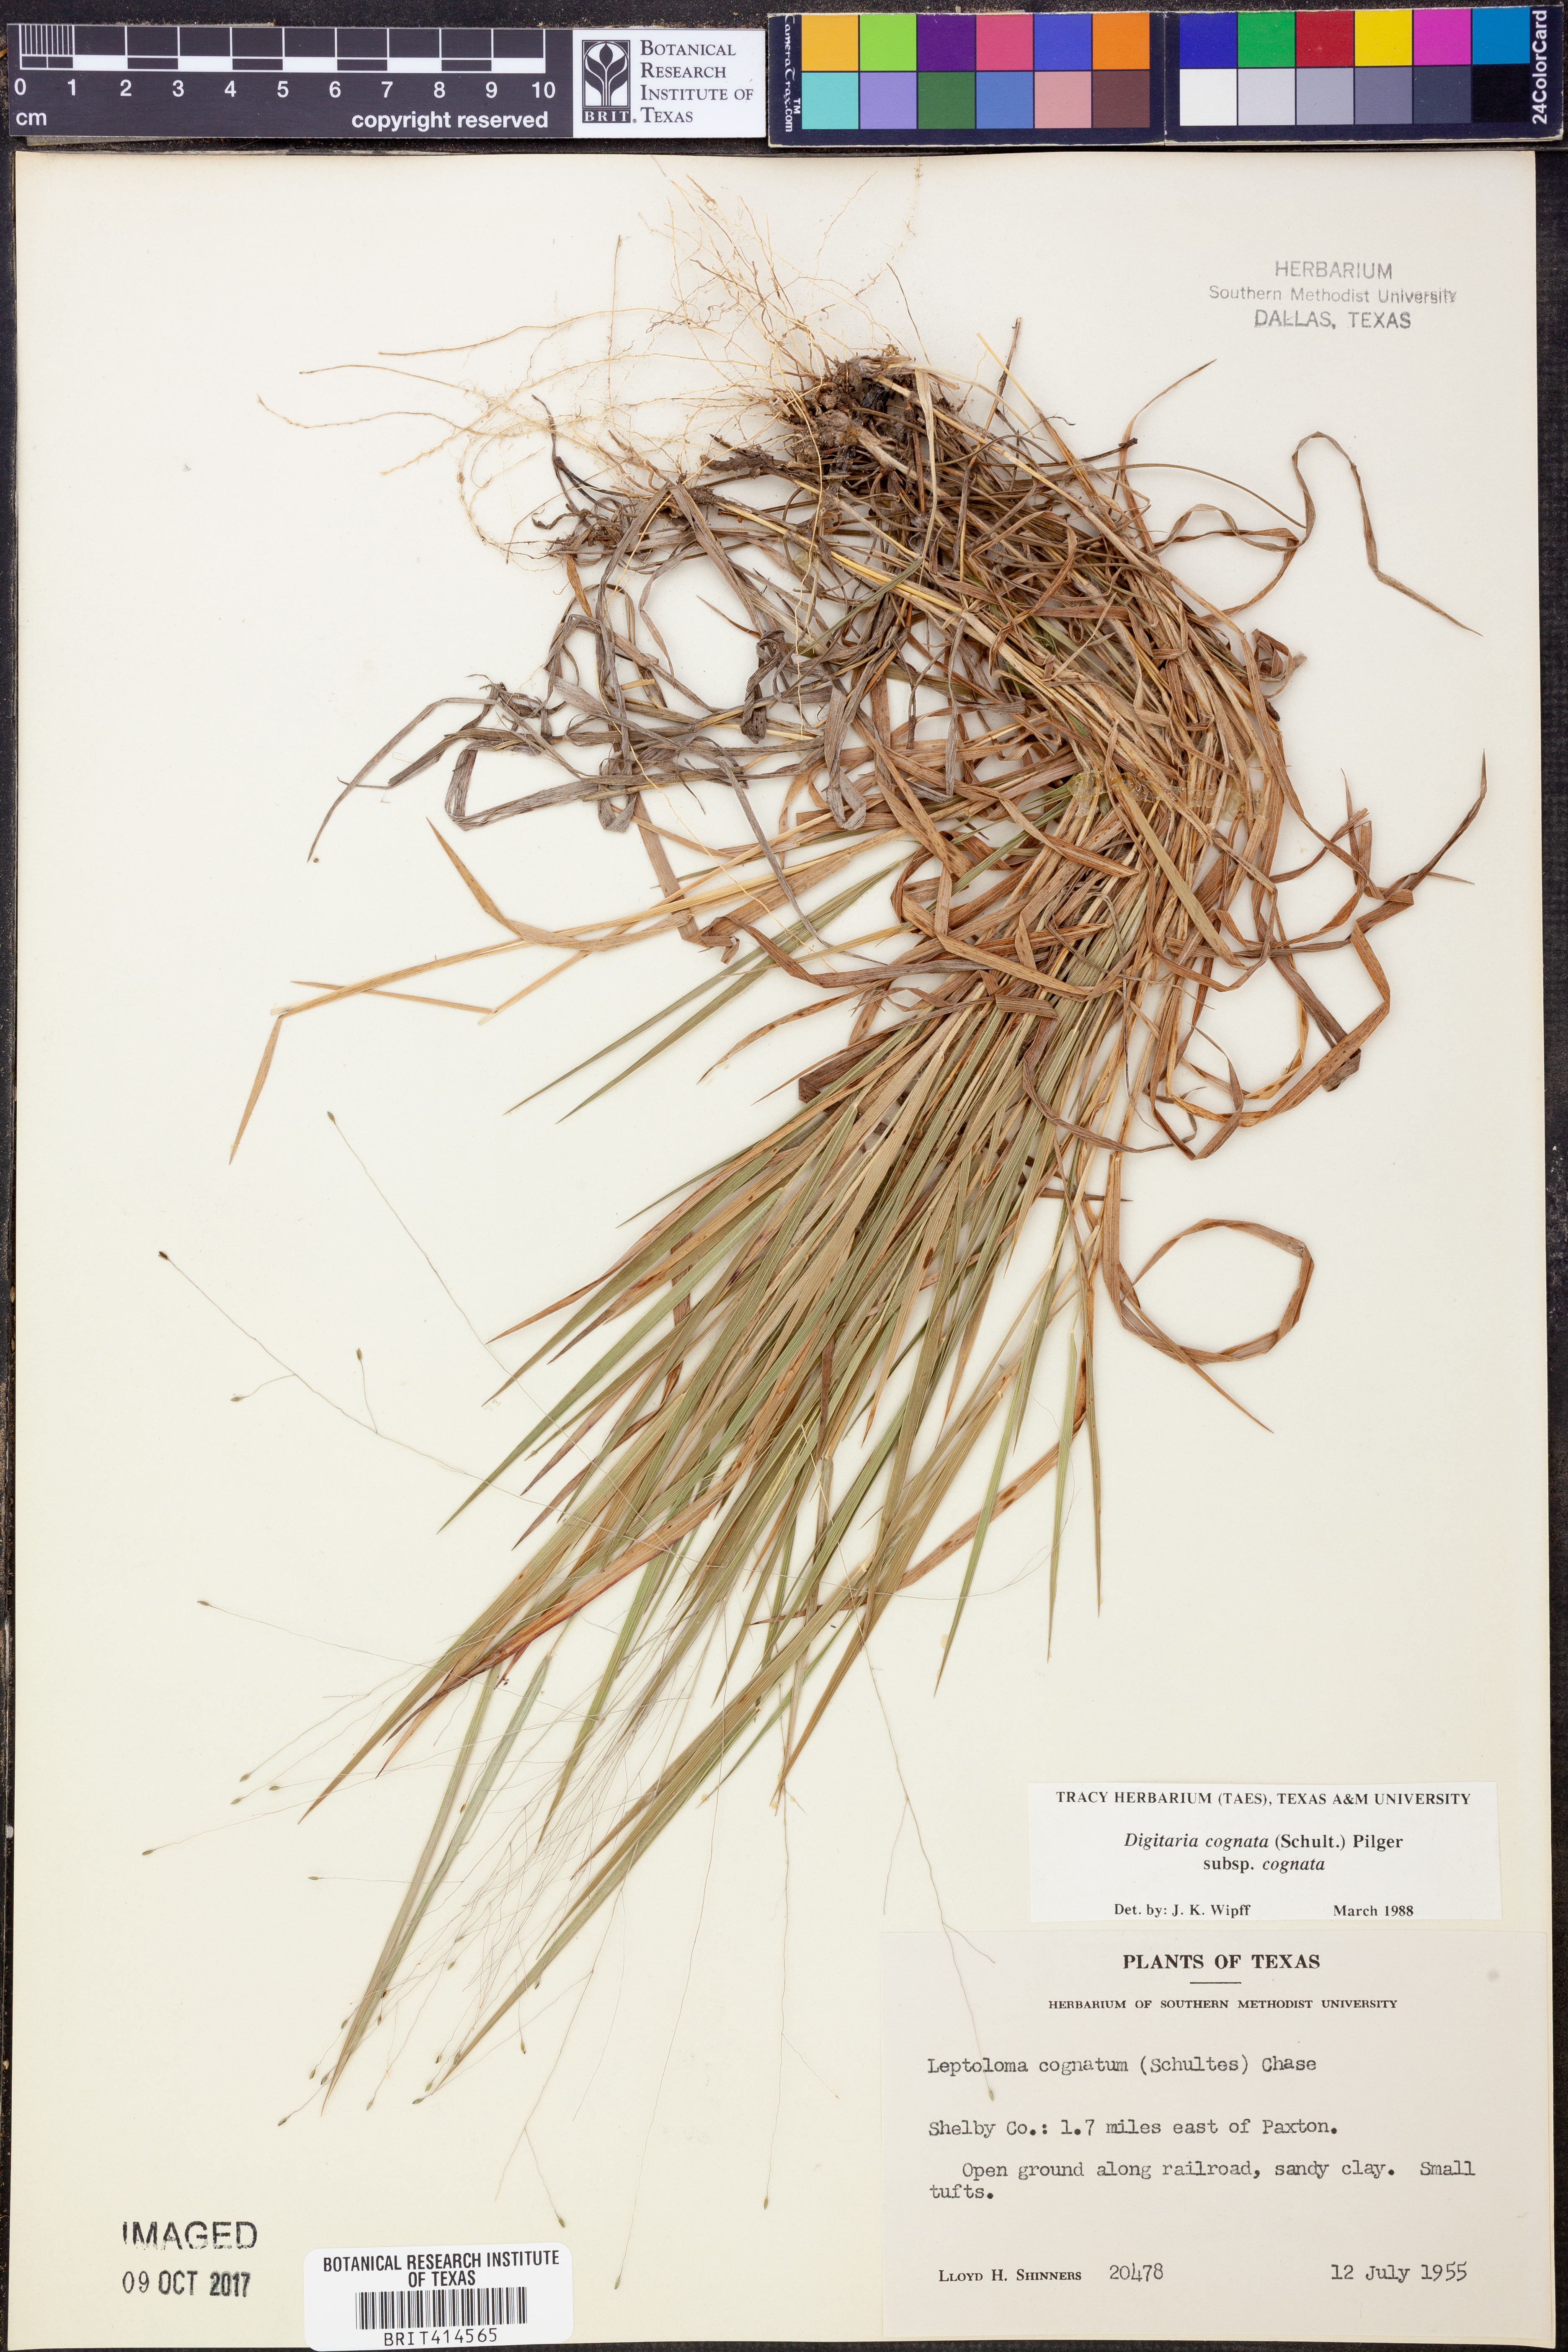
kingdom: Plantae
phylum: Tracheophyta
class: Liliopsida
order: Poales
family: Poaceae
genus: Digitaria
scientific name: Digitaria cognata
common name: Fall witchgrass
